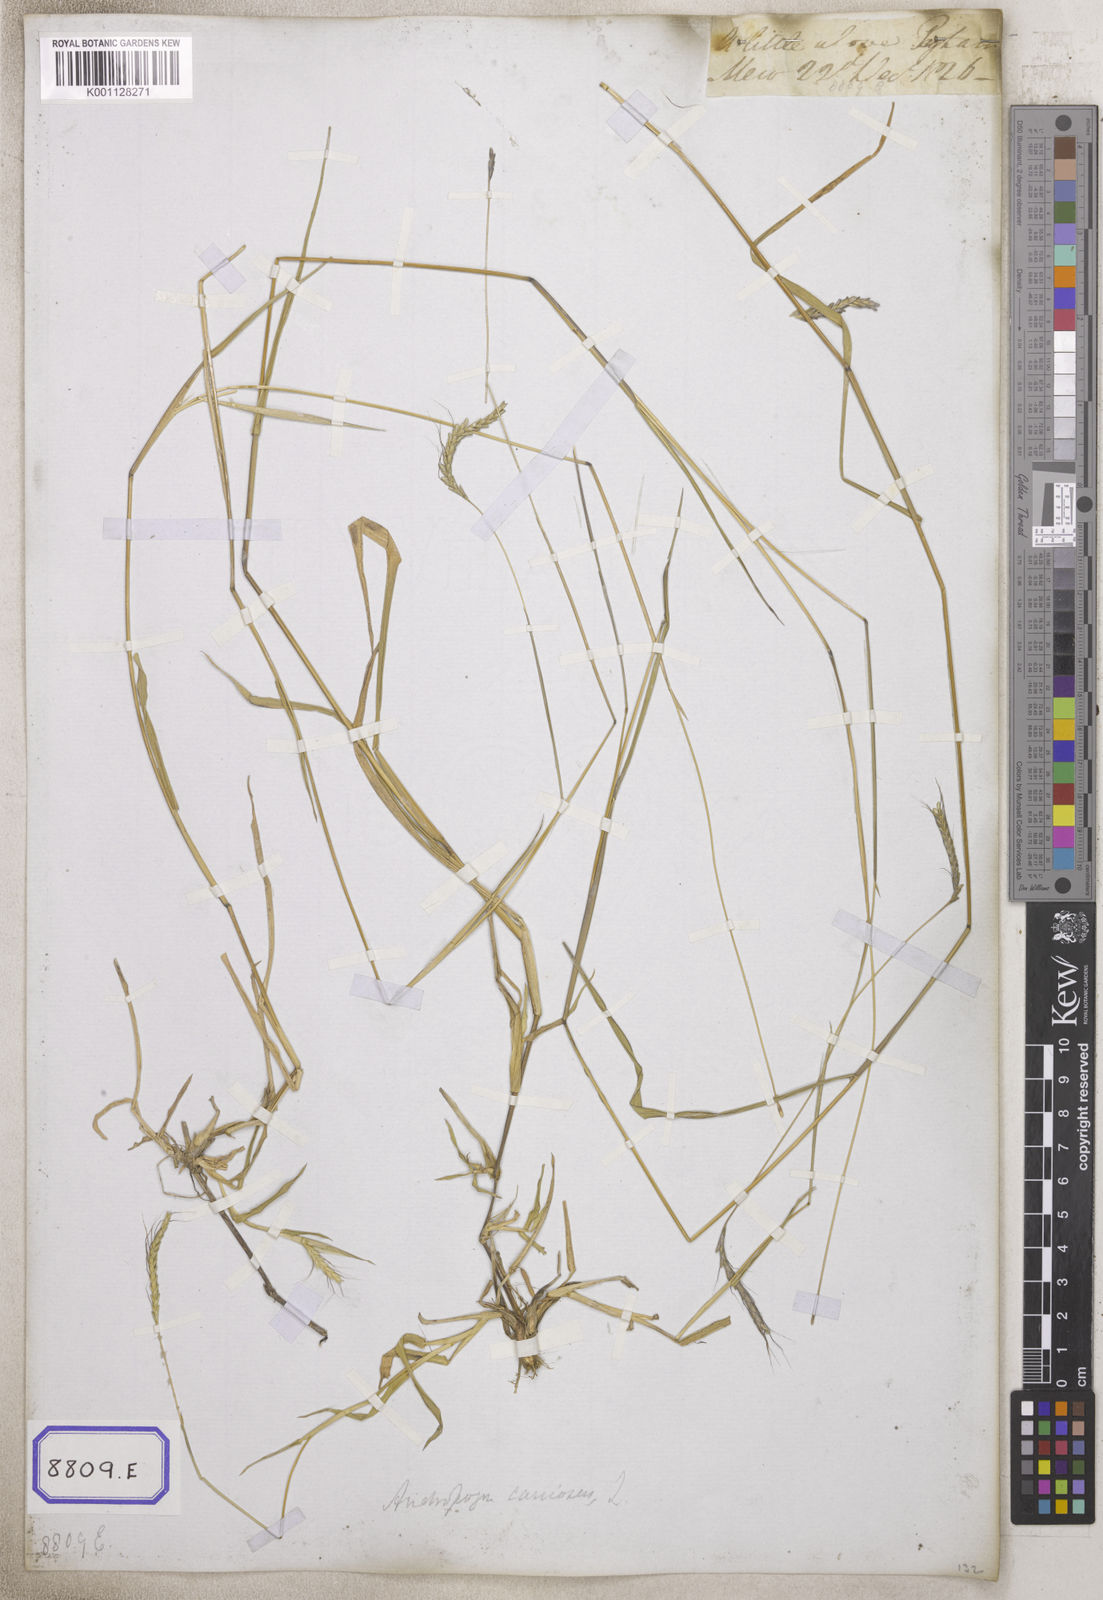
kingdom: Plantae
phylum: Tracheophyta
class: Liliopsida
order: Poales
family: Poaceae
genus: Andropogon
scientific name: Andropogon
